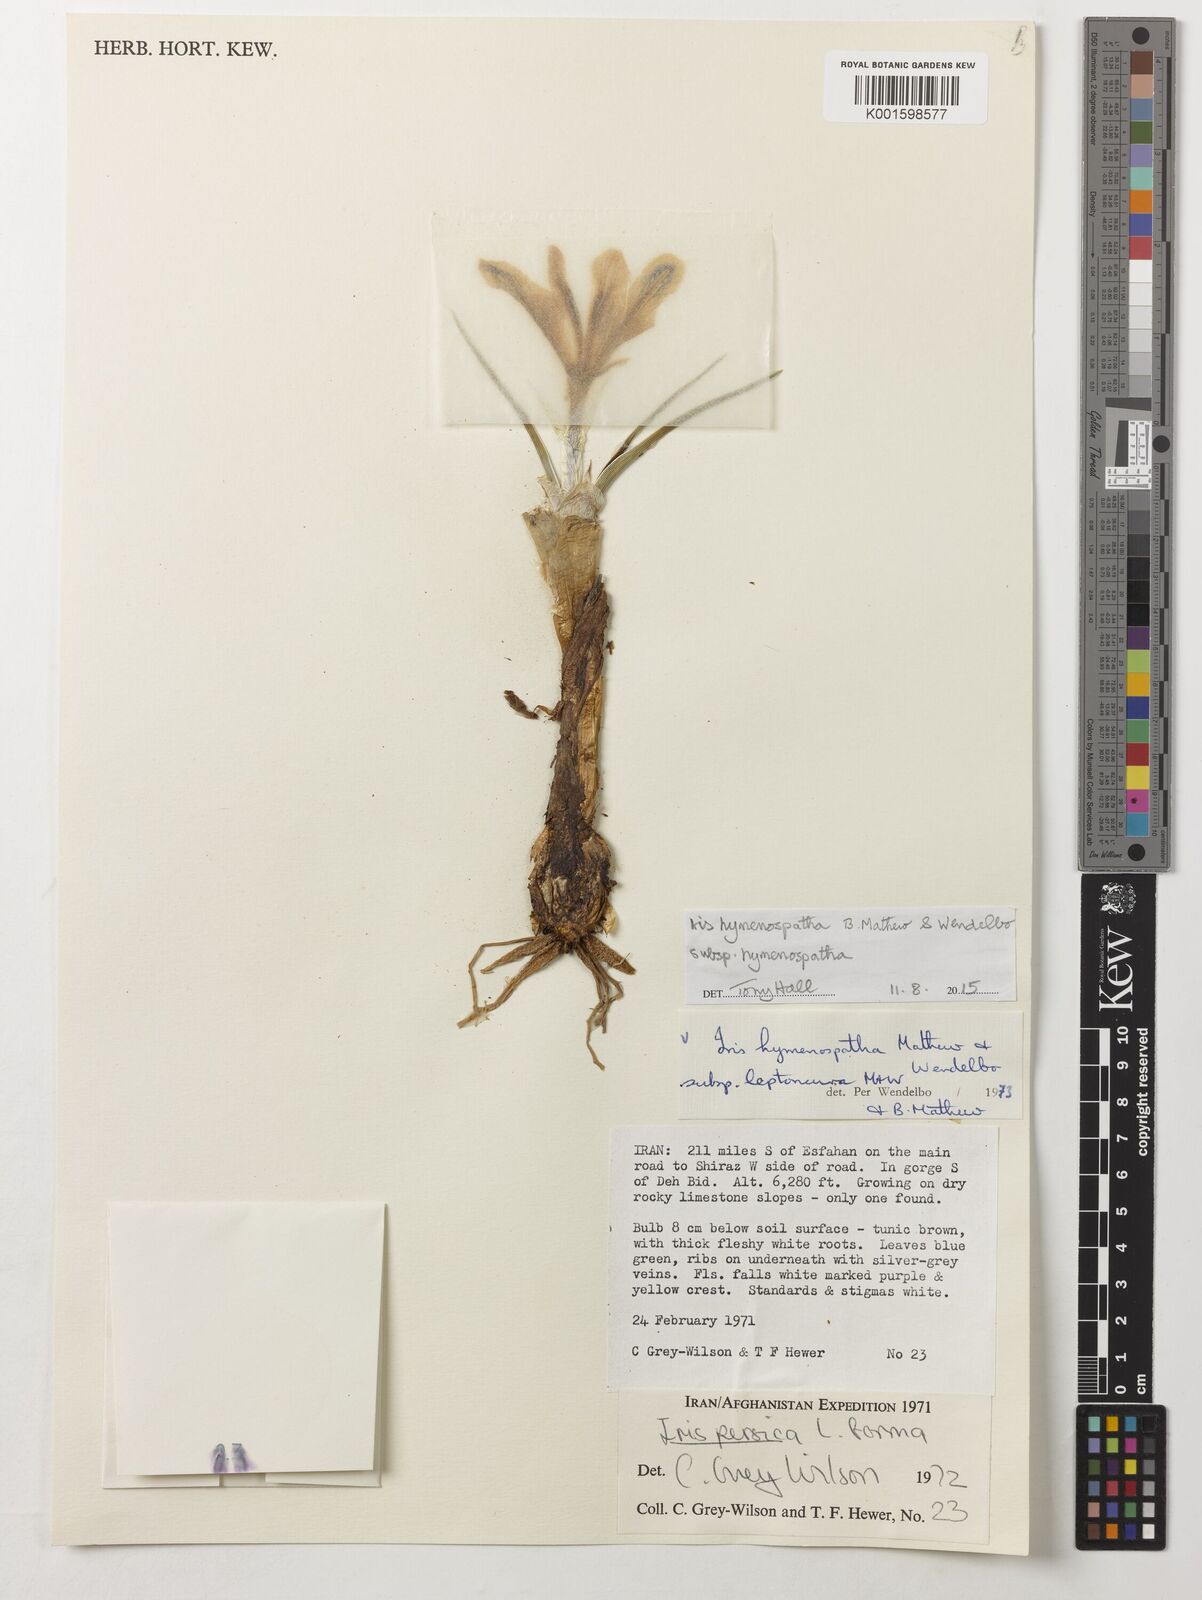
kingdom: Plantae
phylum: Tracheophyta
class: Liliopsida
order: Asparagales
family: Iridaceae
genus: Iris
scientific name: Iris hymenospatha
